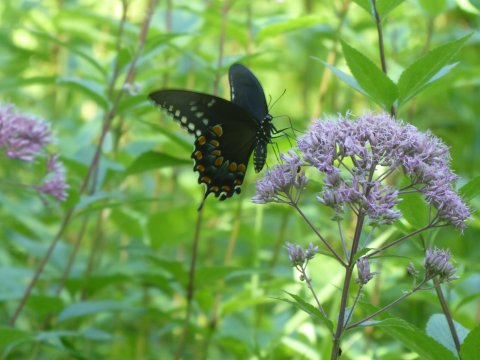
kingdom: Animalia
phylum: Arthropoda
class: Insecta
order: Lepidoptera
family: Papilionidae
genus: Pterourus
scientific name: Pterourus troilus
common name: Spicebush Swallowtail
